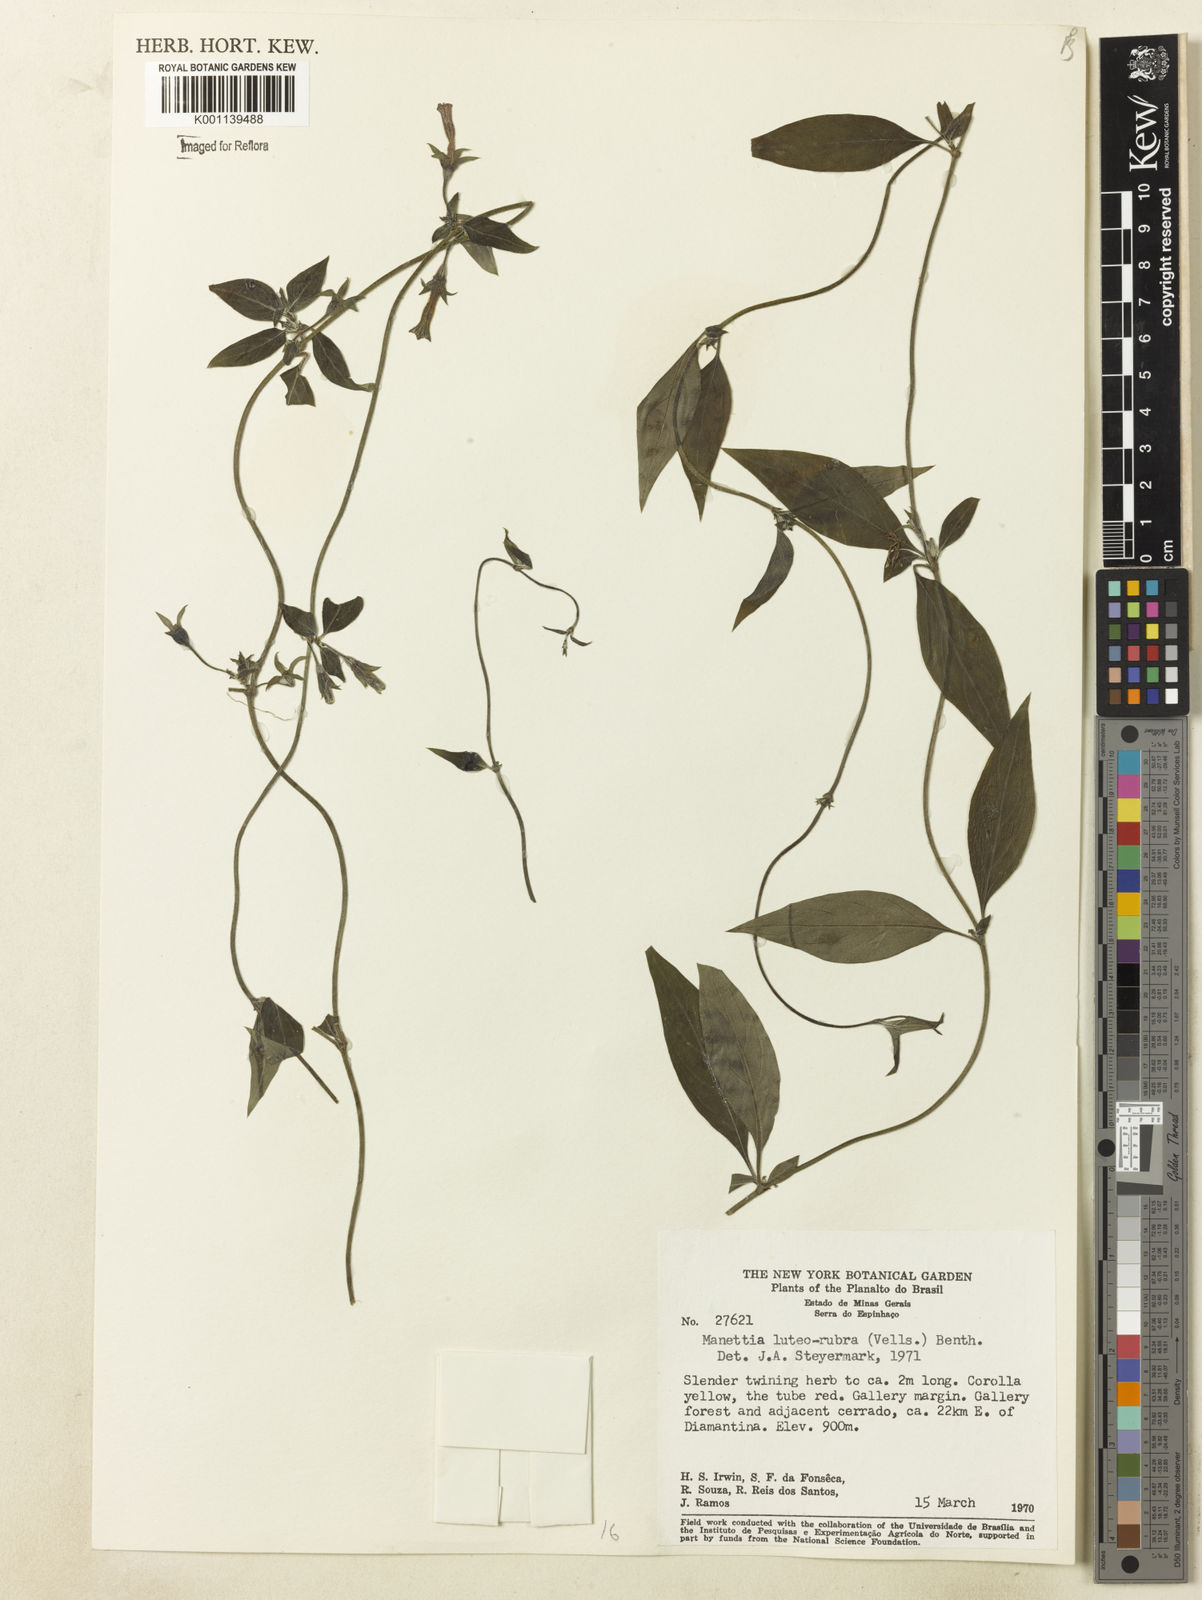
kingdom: Plantae
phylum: Tracheophyta
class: Magnoliopsida
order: Gentianales
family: Rubiaceae
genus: Manettia
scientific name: Manettia luteorubra
